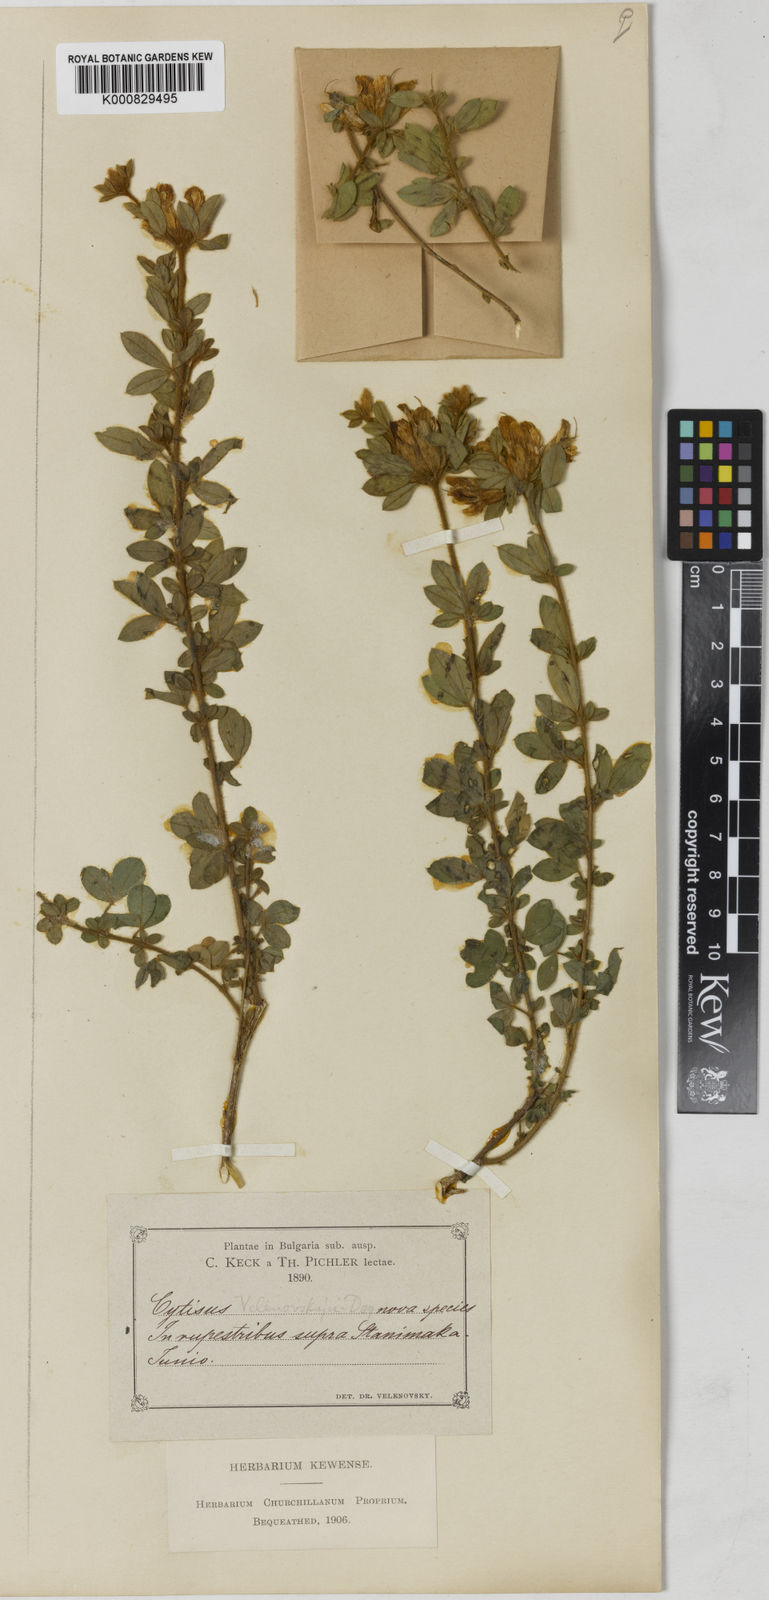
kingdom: Plantae
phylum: Tracheophyta
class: Magnoliopsida
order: Fabales
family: Fabaceae
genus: Chamaecytisus
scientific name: Chamaecytisus frivaldszkyanus
